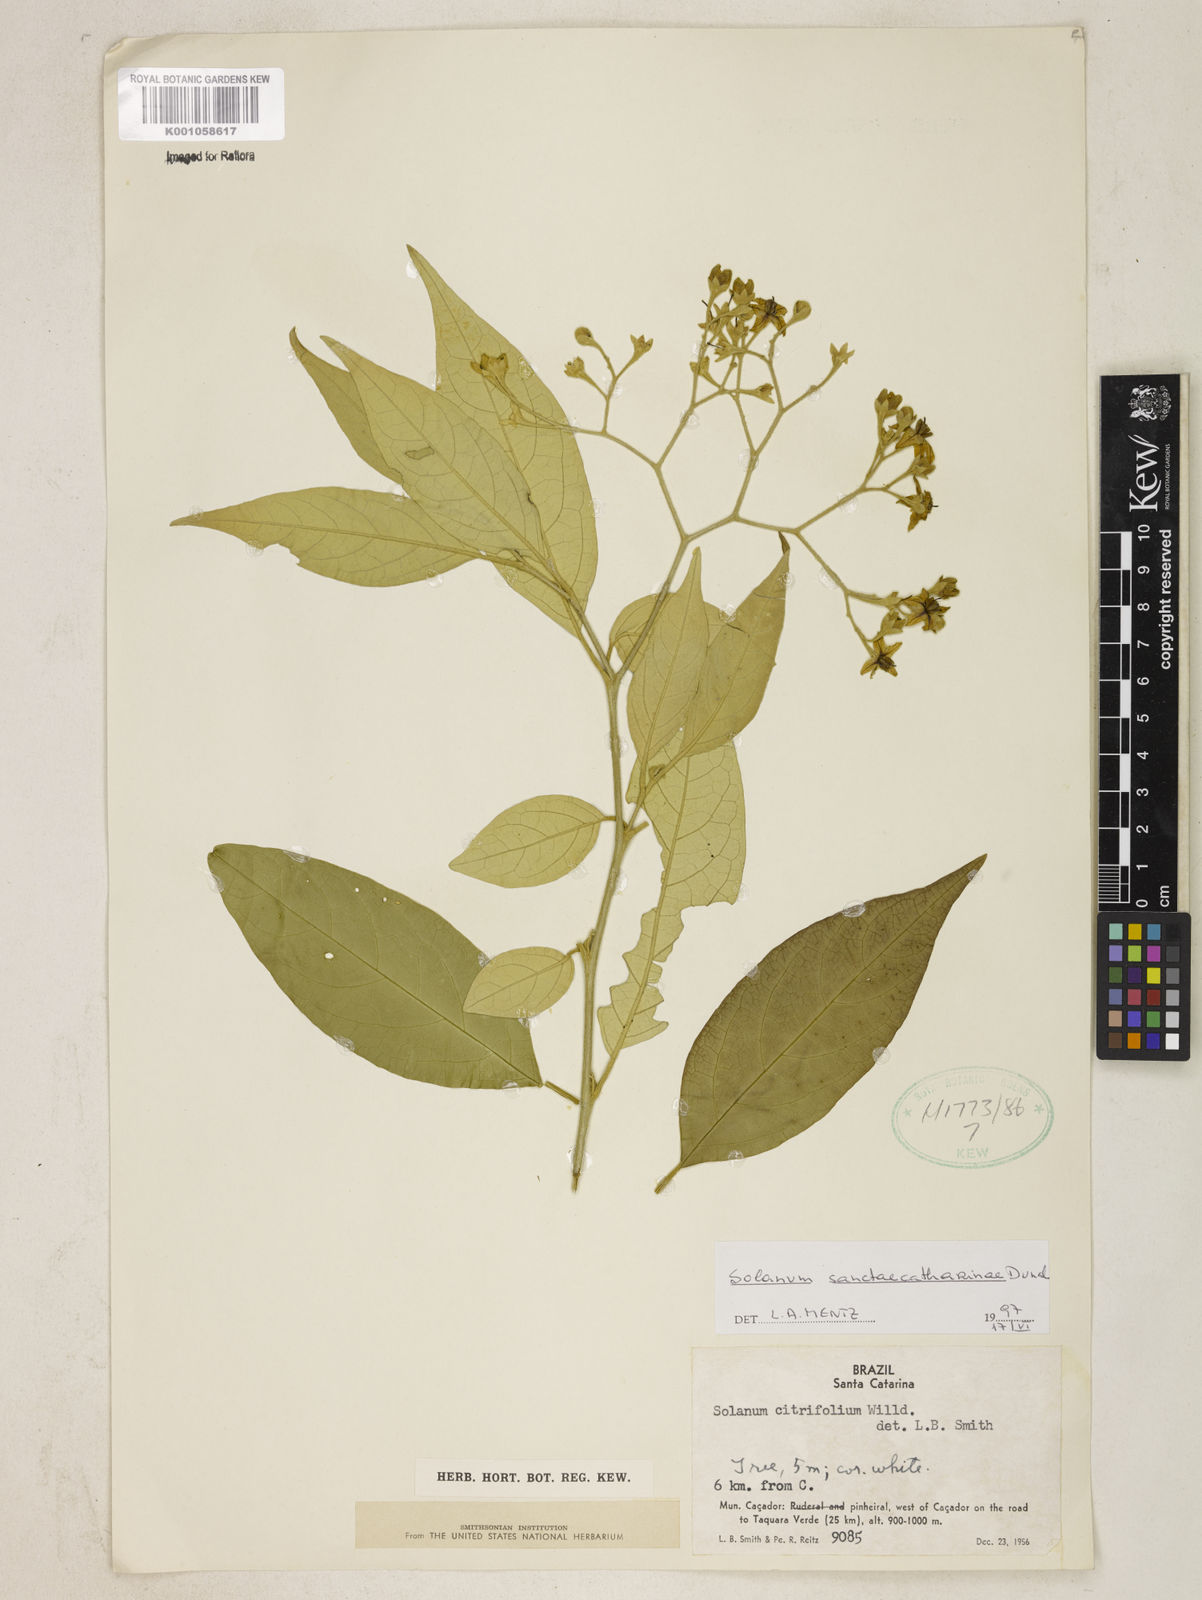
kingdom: Plantae
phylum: Tracheophyta
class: Magnoliopsida
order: Solanales
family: Solanaceae
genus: Solanum
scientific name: Solanum sanctae-catharinae
